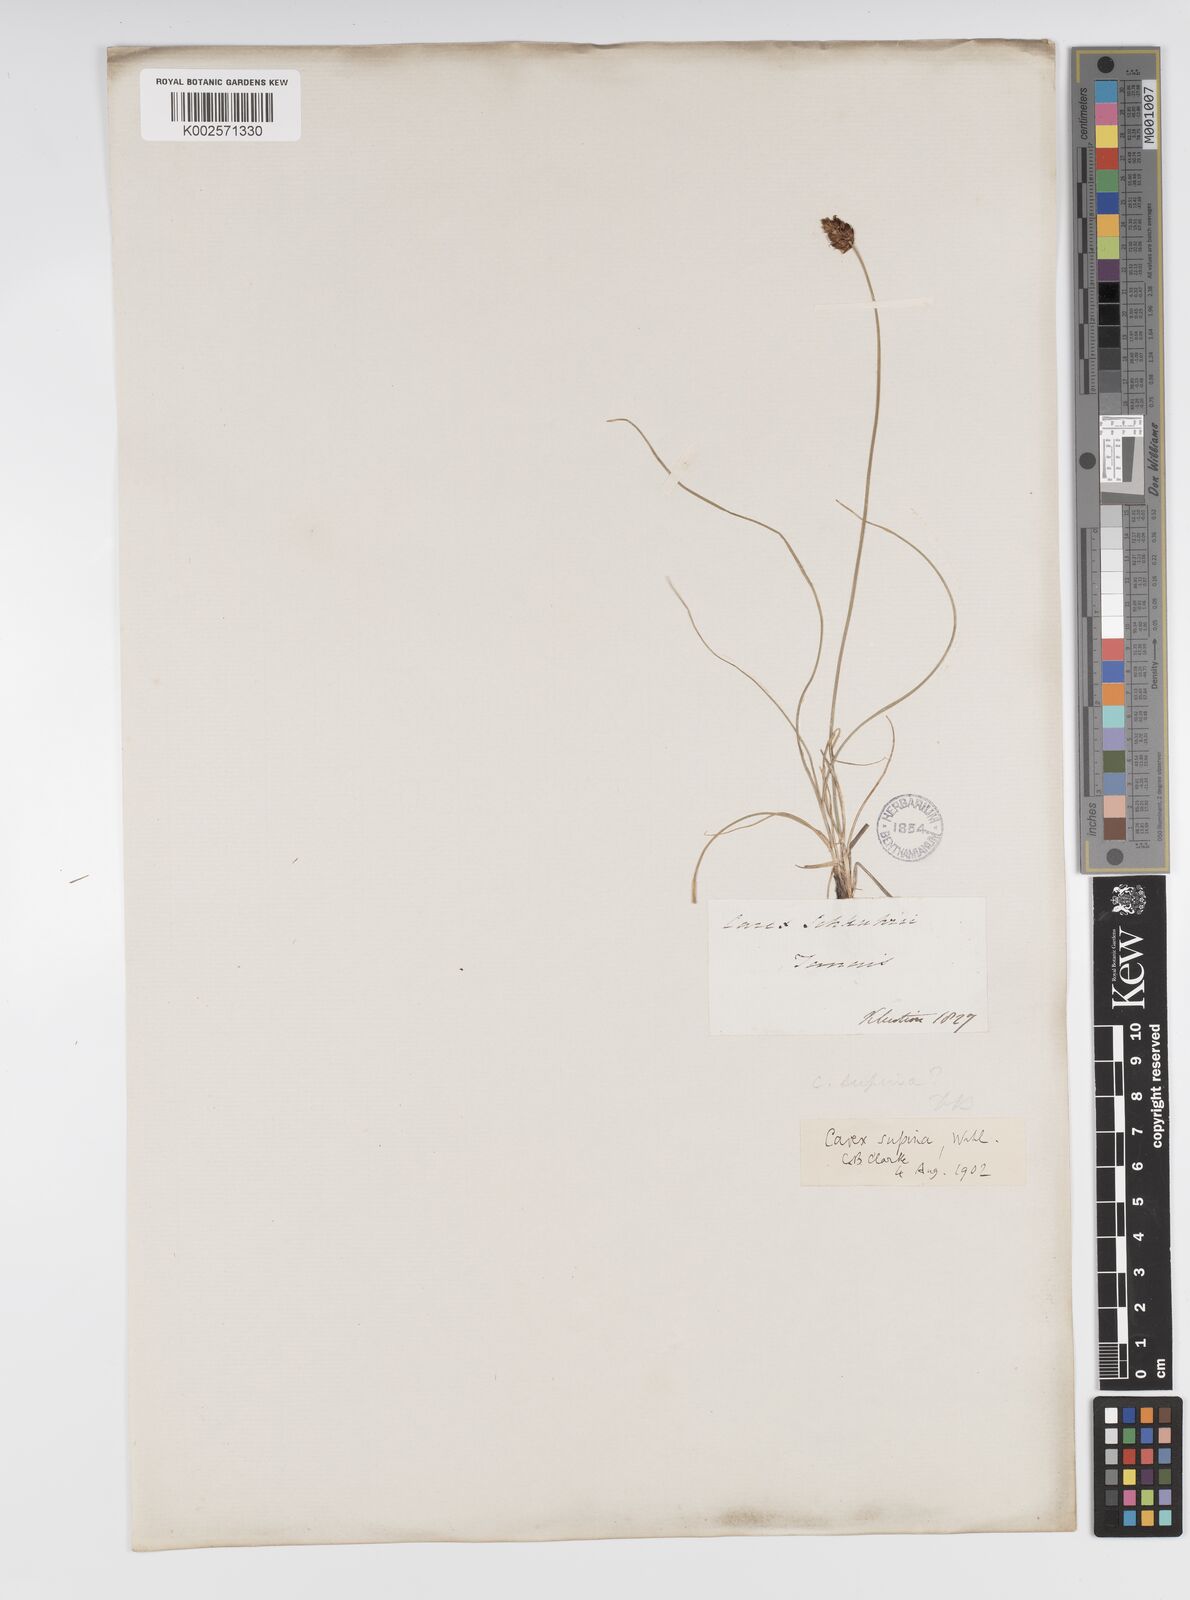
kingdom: Plantae
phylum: Tracheophyta
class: Liliopsida
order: Poales
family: Cyperaceae
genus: Carex
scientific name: Carex supina
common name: Lying-back sedge
